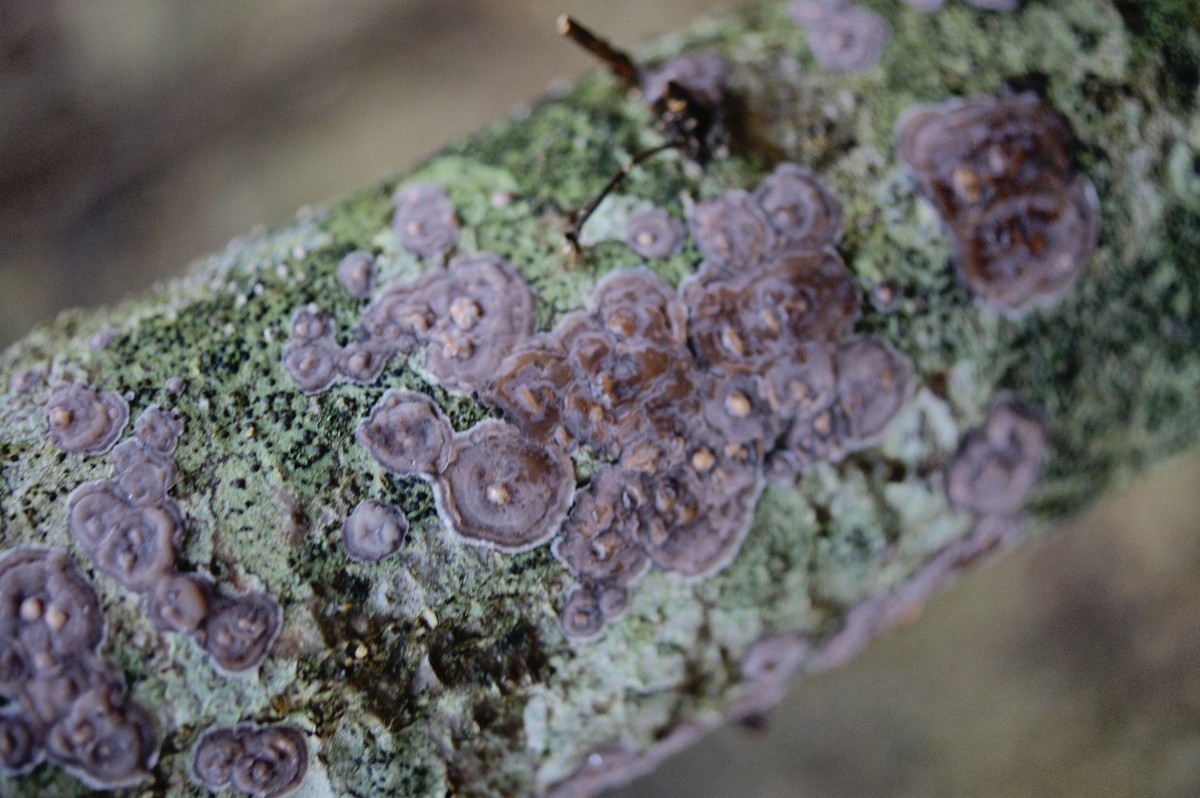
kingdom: Fungi
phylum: Basidiomycota
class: Agaricomycetes
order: Russulales
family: Peniophoraceae
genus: Peniophora
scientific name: Peniophora quercina
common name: ege-voksskind
